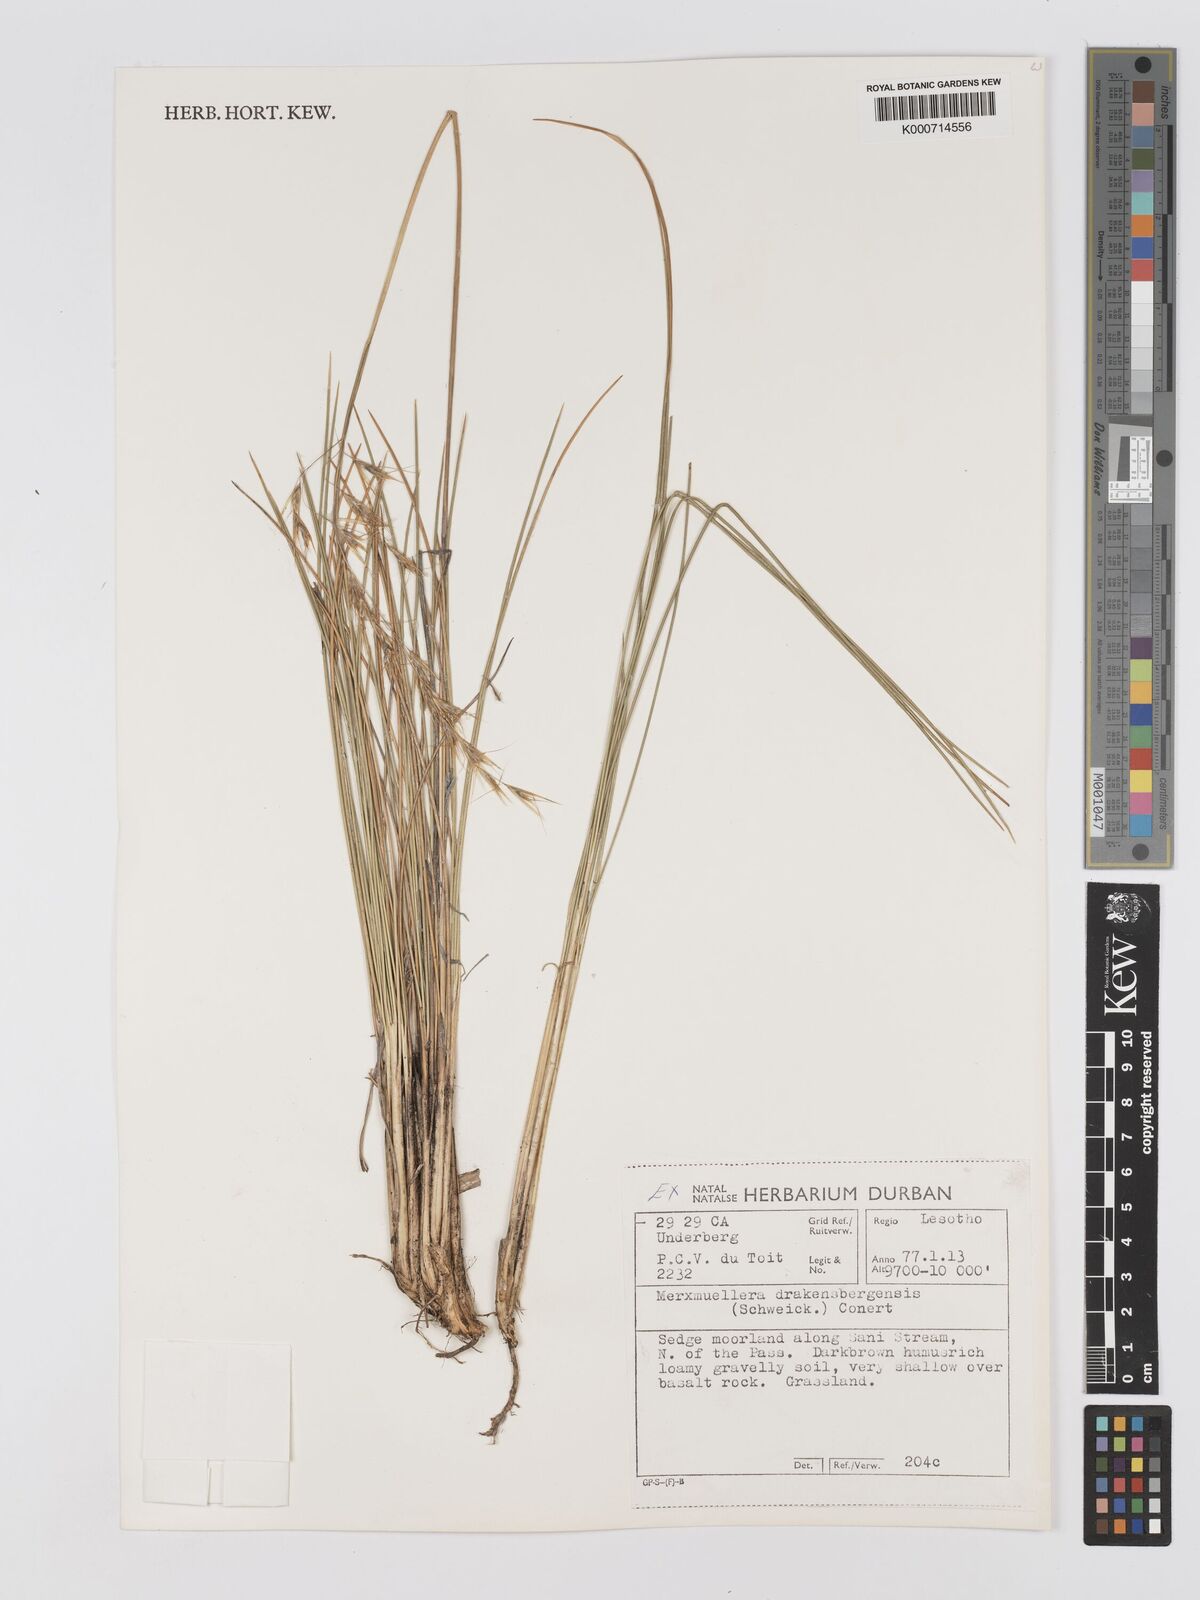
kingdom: Plantae
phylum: Tracheophyta
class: Liliopsida
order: Poales
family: Poaceae
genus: Rytidosperma
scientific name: Rytidosperma
